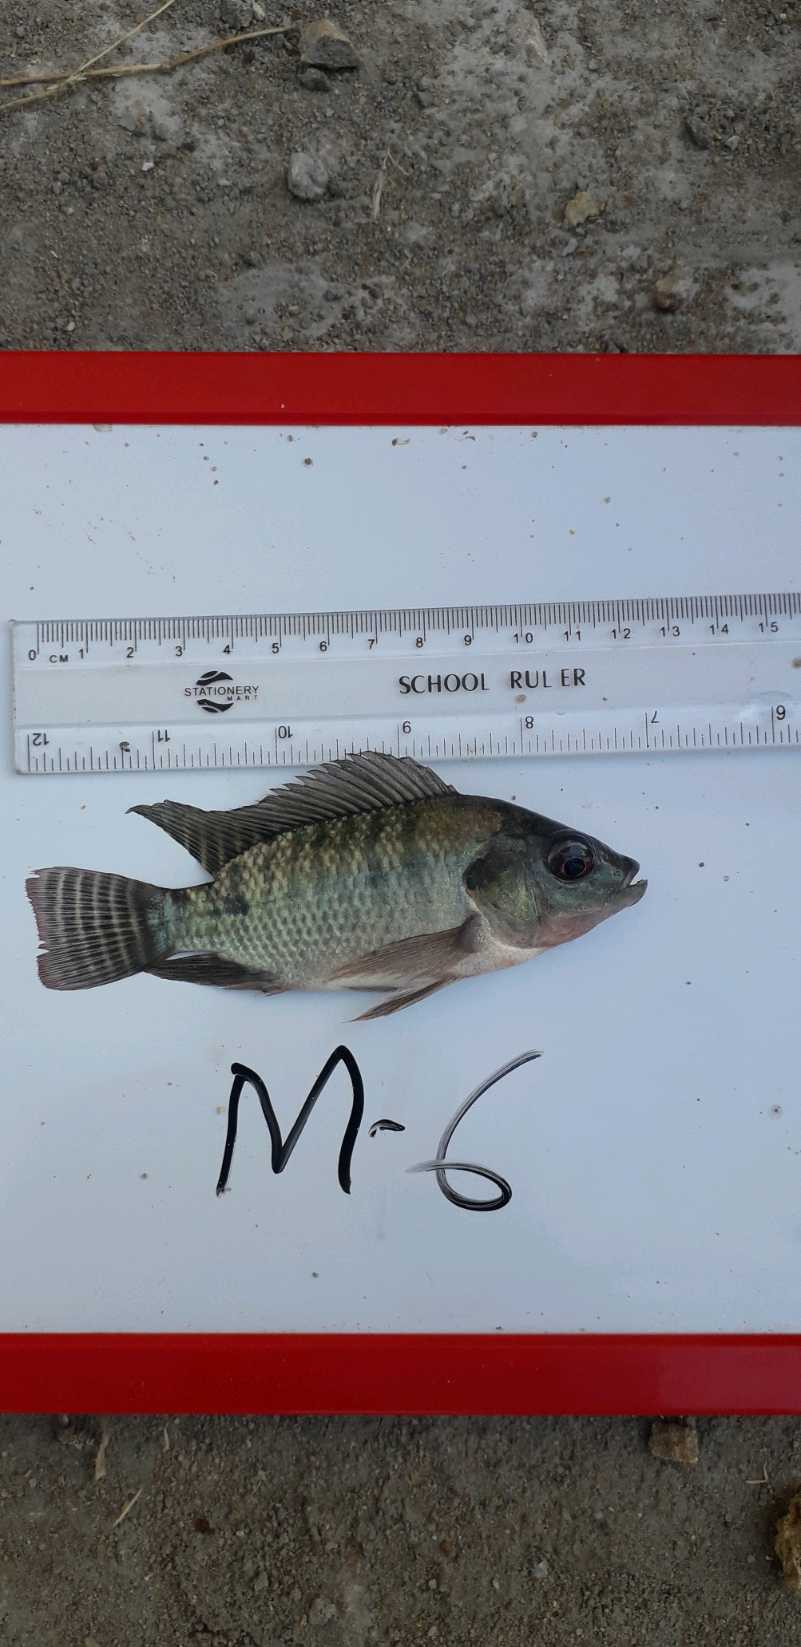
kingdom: Animalia
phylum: Chordata
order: Perciformes
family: Cichlidae
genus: Oreochromis
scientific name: Oreochromis niloticus
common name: Nile tilapia
